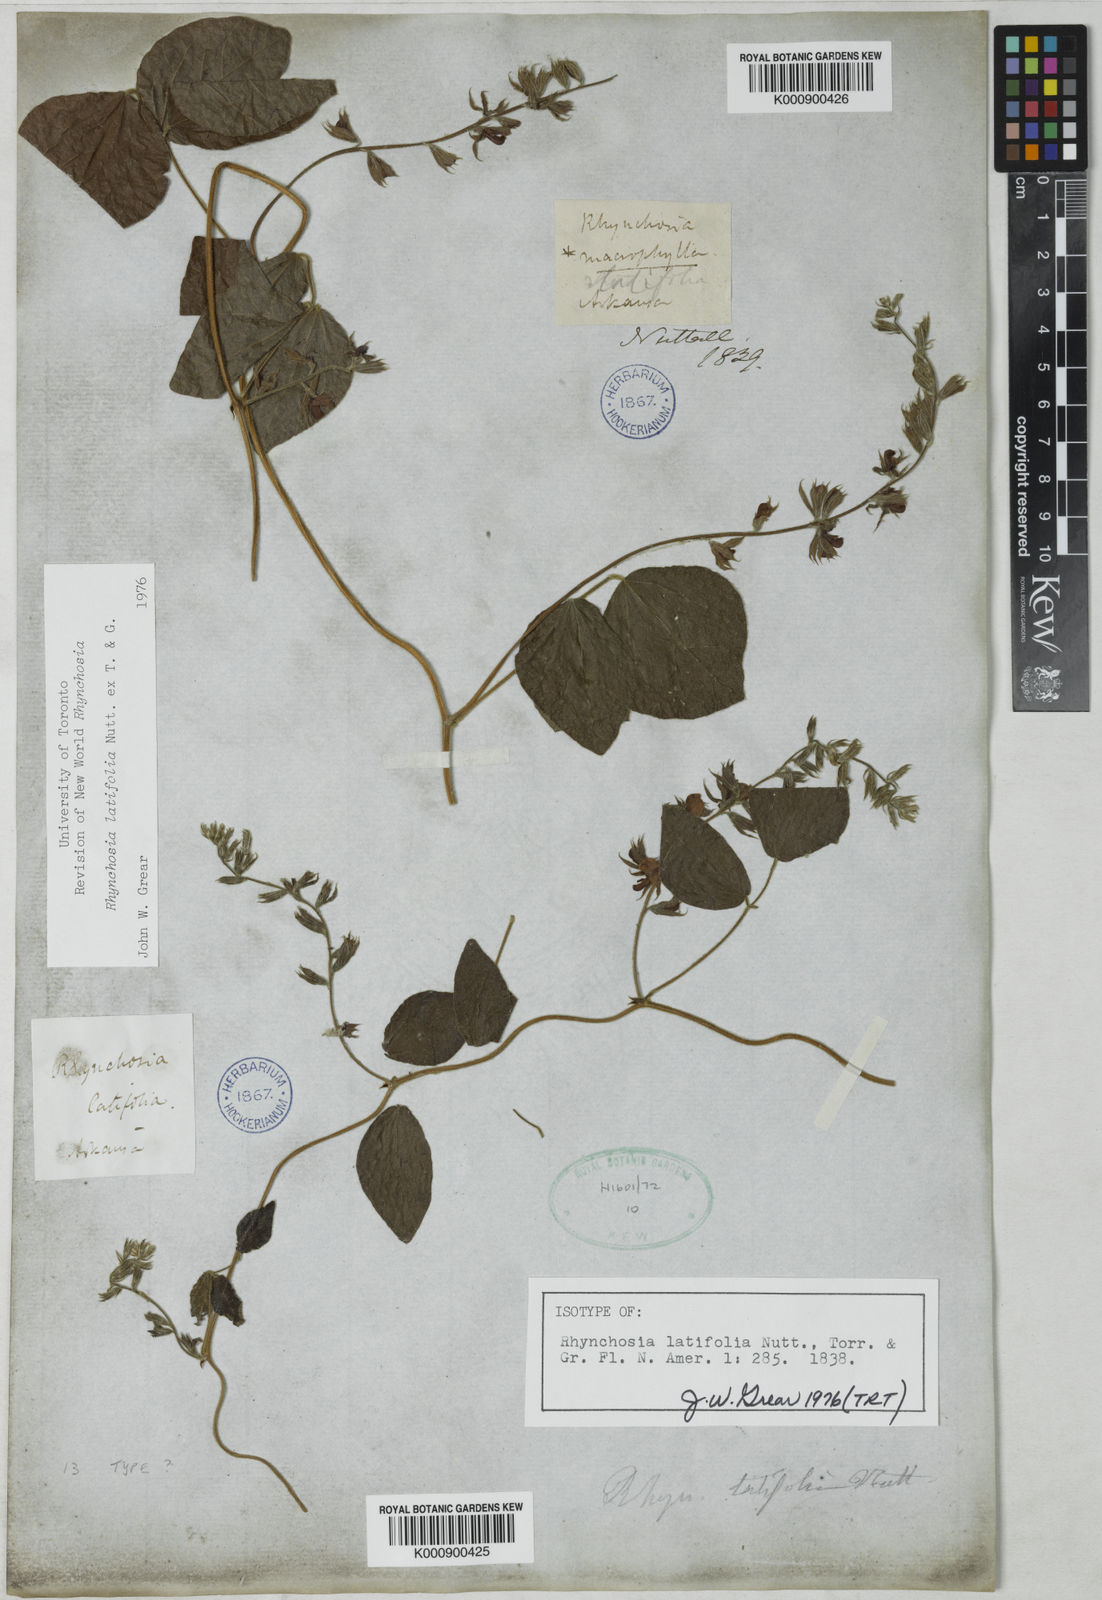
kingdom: Plantae
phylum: Tracheophyta
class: Magnoliopsida
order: Fabales
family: Fabaceae
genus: Rhynchosia
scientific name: Rhynchosia
